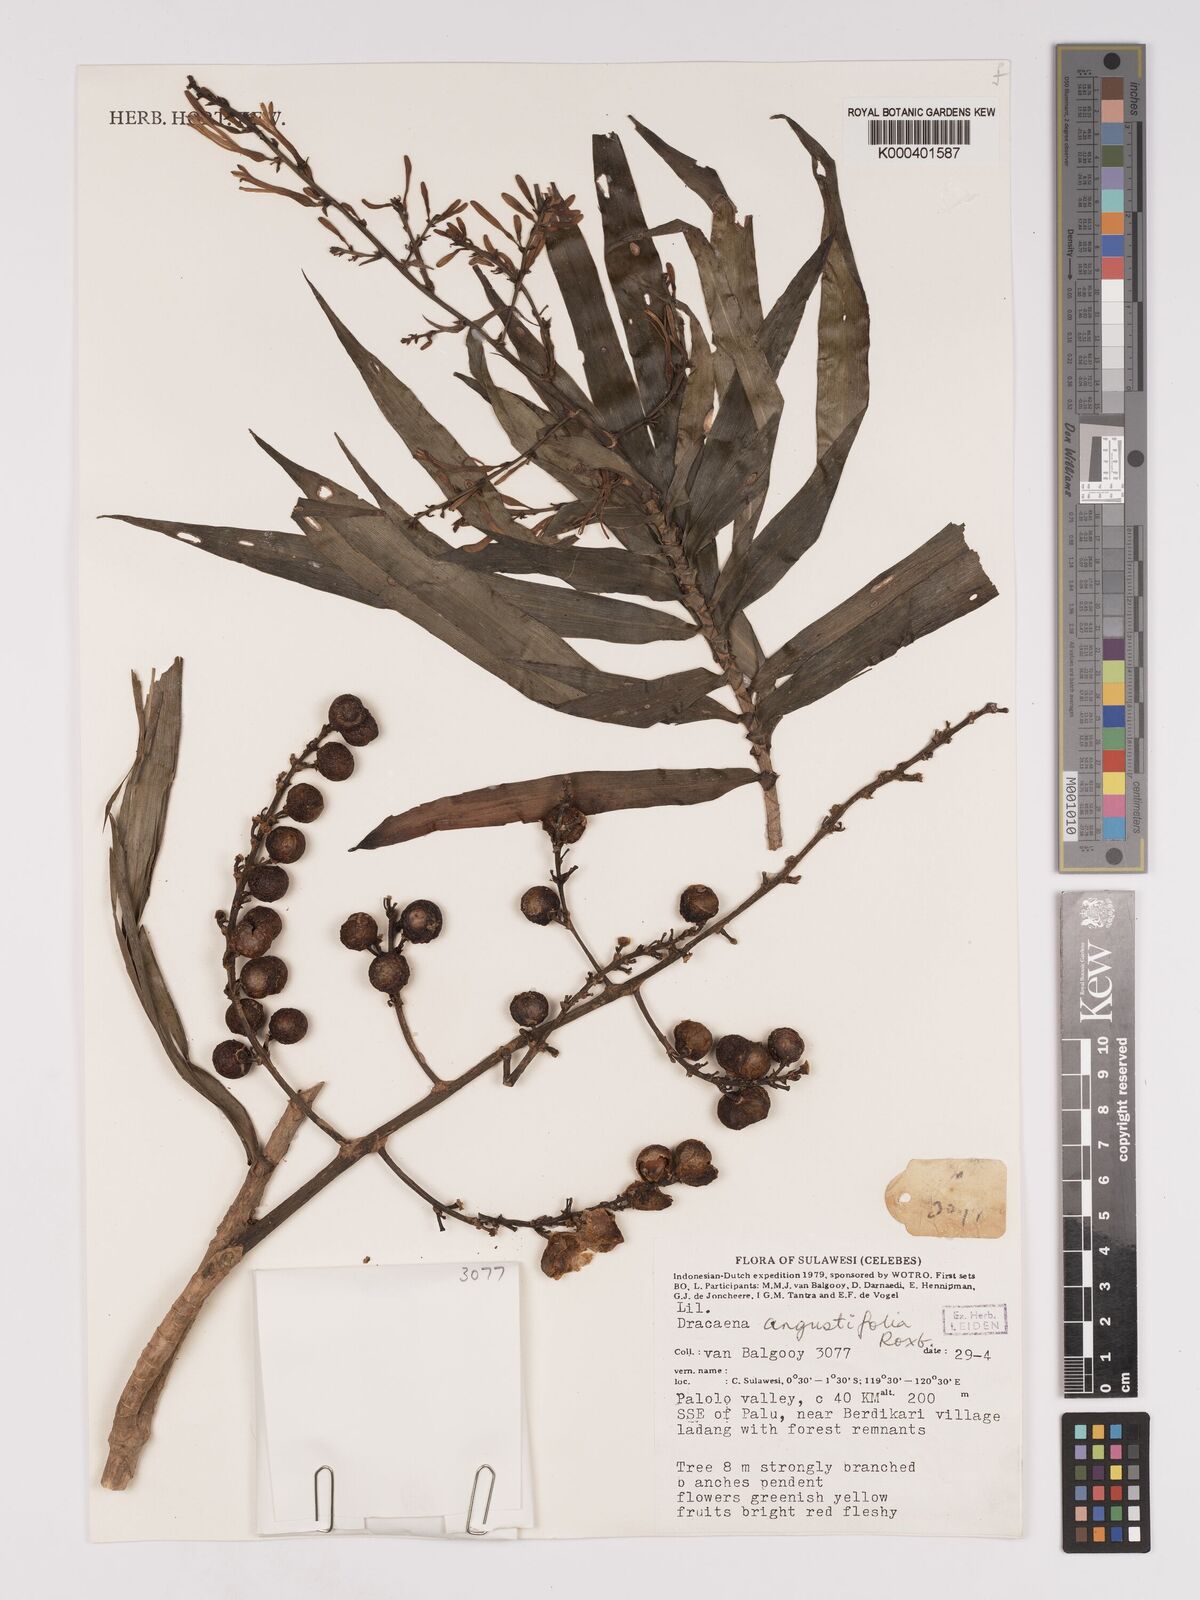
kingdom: Plantae
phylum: Tracheophyta
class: Liliopsida
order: Asparagales
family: Asparagaceae
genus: Dracaena
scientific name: Dracaena angustifolia
